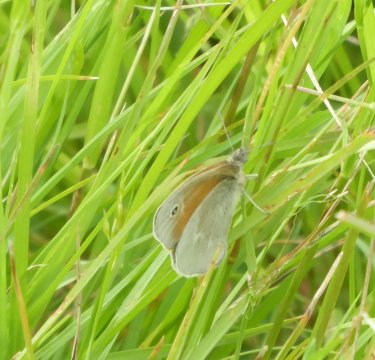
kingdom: Animalia
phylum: Arthropoda
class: Insecta
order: Lepidoptera
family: Nymphalidae
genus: Coenonympha
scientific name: Coenonympha tullia
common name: Large Heath
